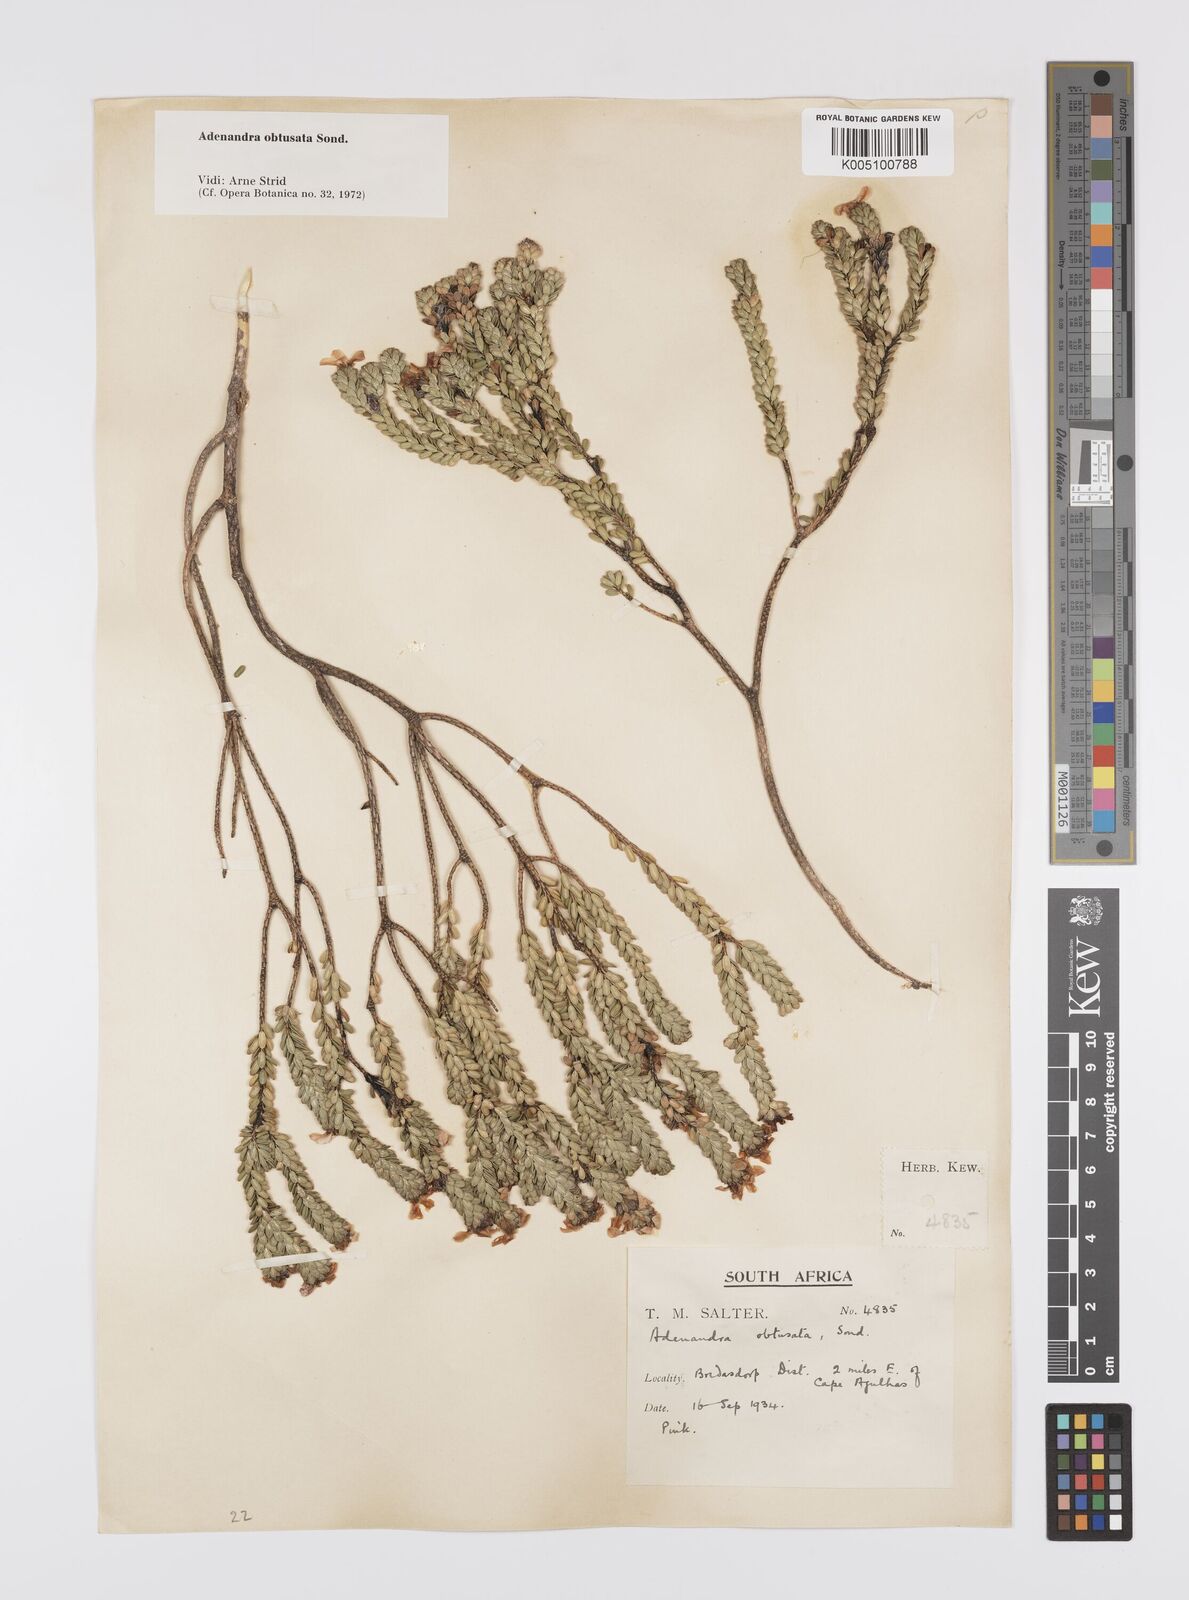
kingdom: Plantae
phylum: Tracheophyta
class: Magnoliopsida
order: Sapindales
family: Rutaceae
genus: Adenandra
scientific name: Adenandra obtusata
